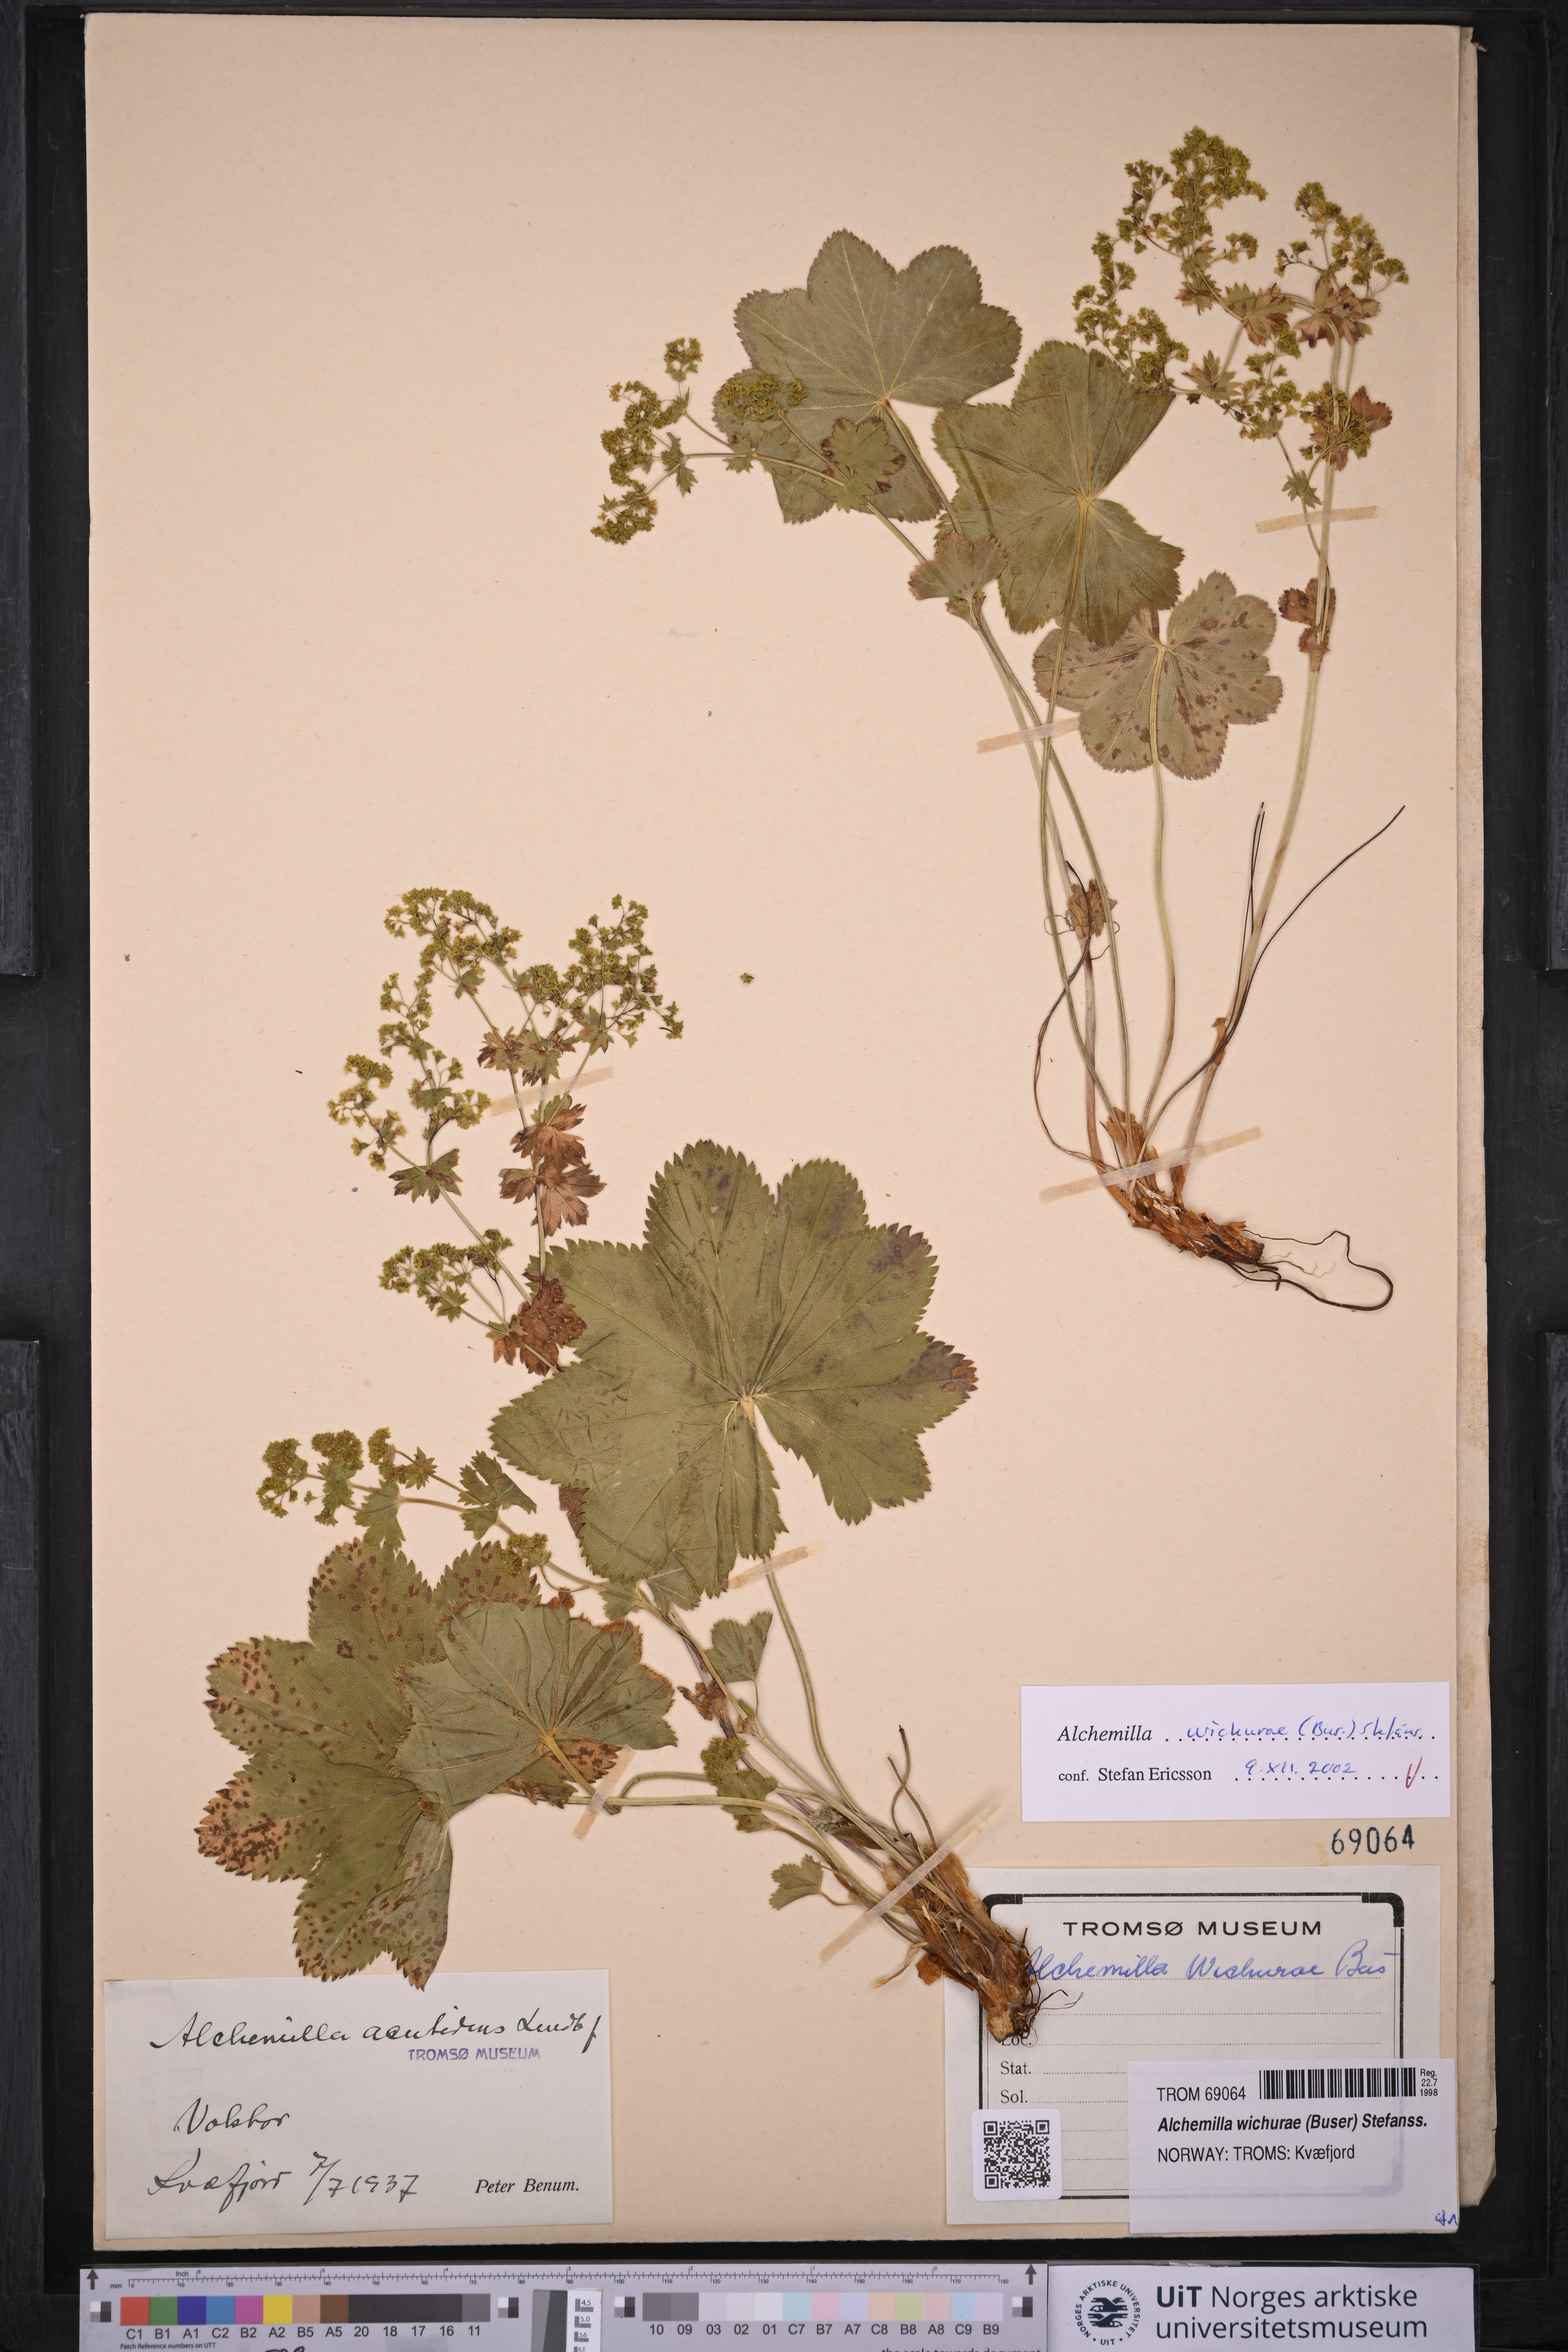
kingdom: Plantae
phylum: Tracheophyta
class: Magnoliopsida
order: Rosales
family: Rosaceae
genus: Alchemilla
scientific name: Alchemilla wichurae
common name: Rock lady's mantle
